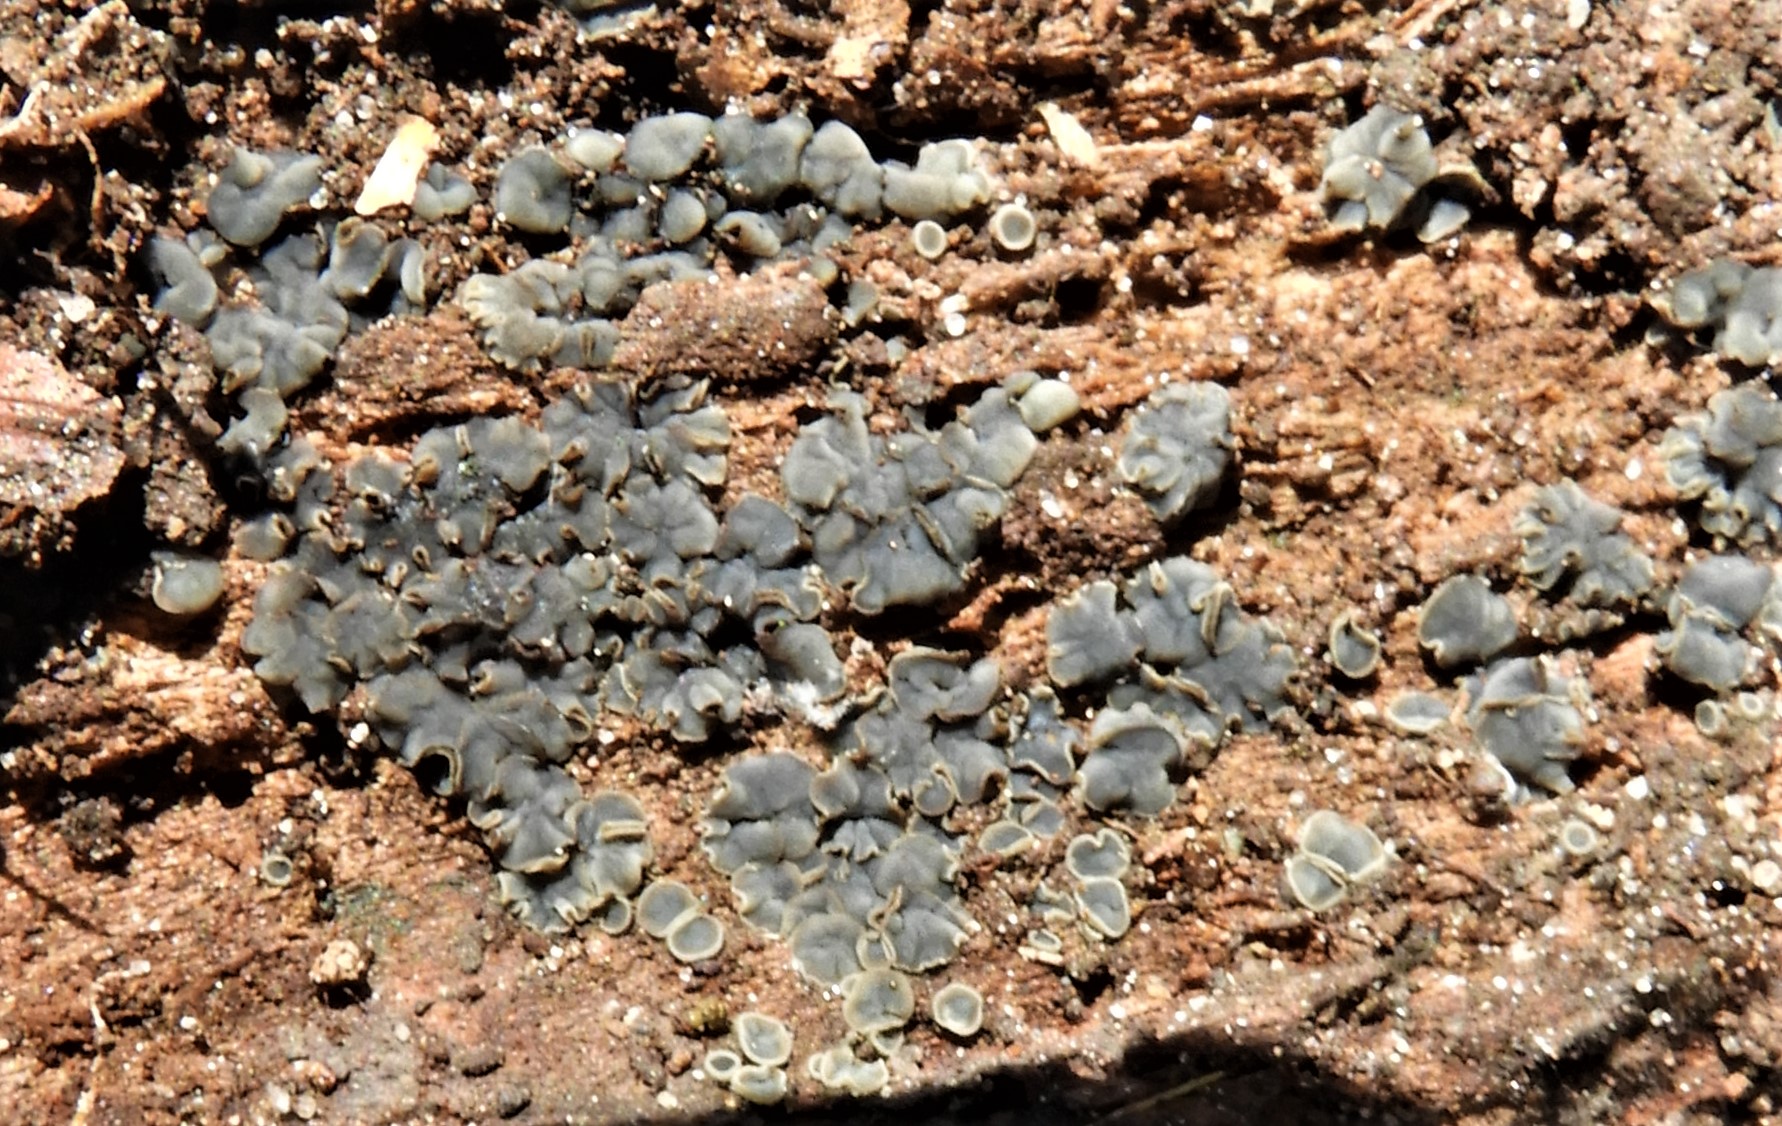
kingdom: Fungi
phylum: Ascomycota
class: Leotiomycetes
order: Helotiales
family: Mollisiaceae
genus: Mollisia
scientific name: Mollisia
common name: gråskive
